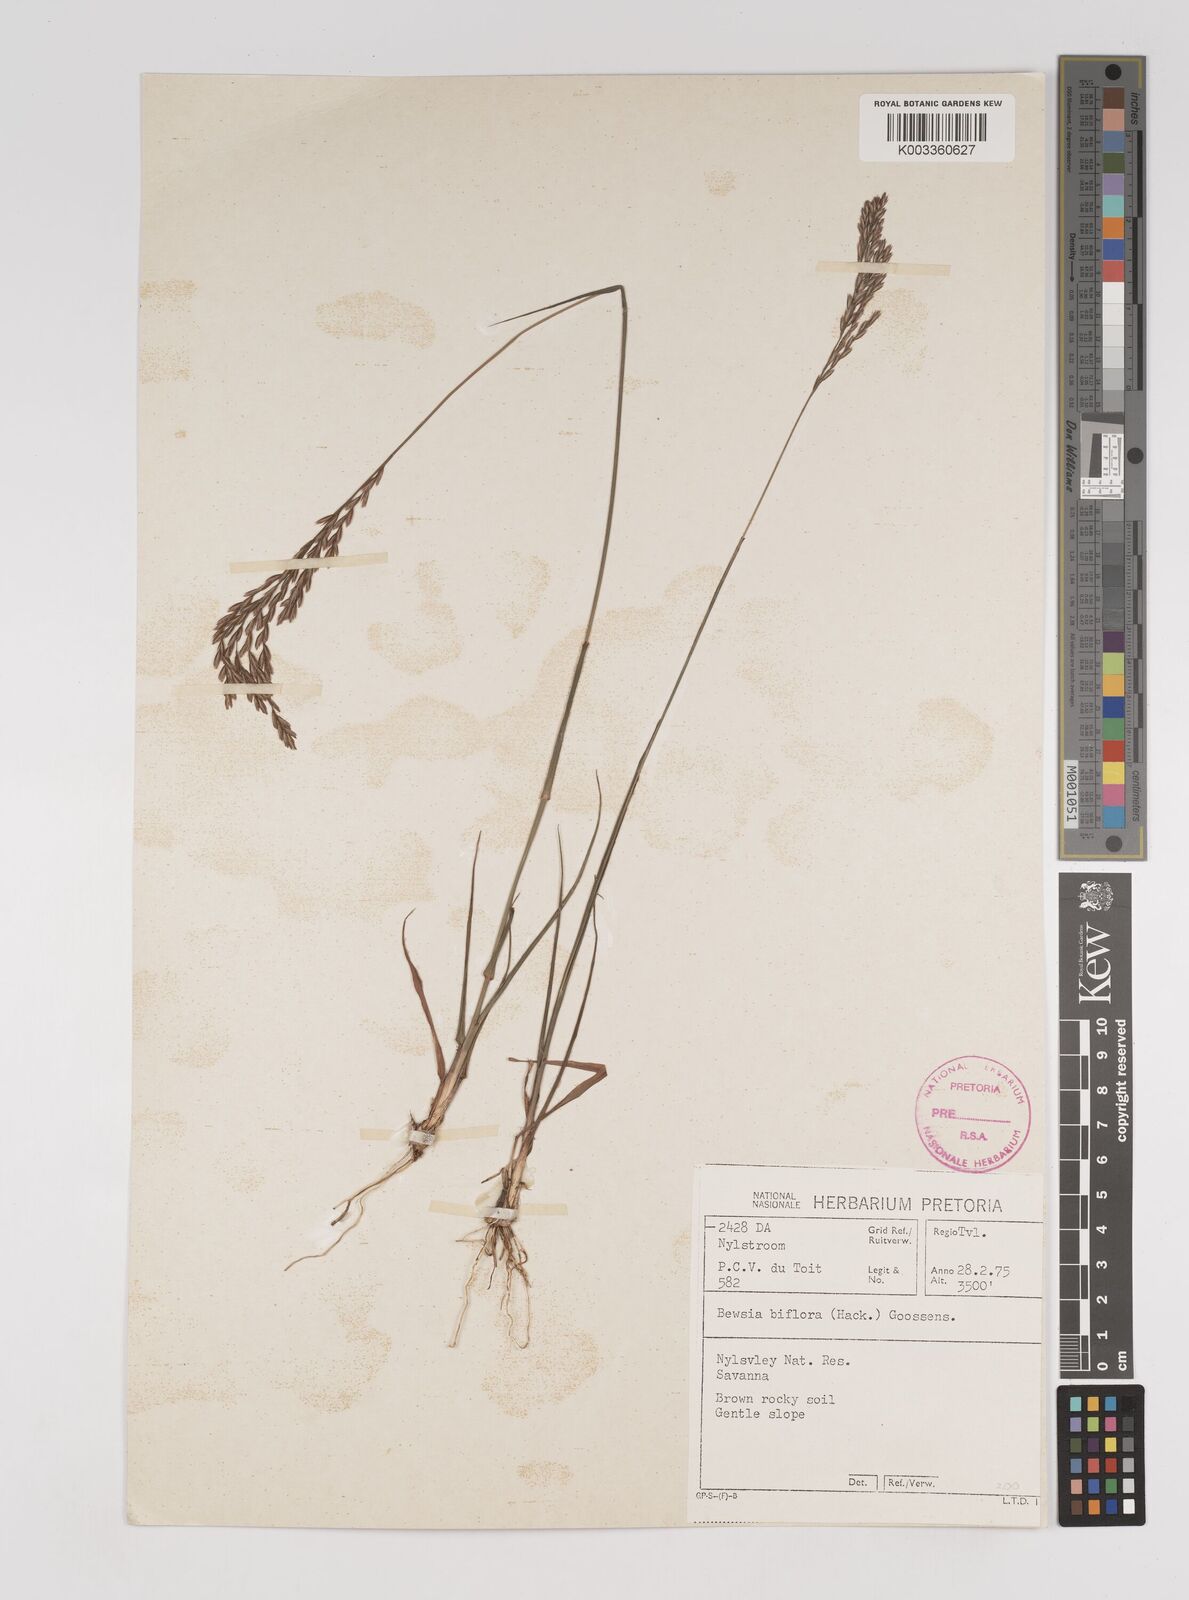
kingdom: Plantae
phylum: Tracheophyta
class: Liliopsida
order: Poales
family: Poaceae
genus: Bewsia
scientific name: Bewsia biflora
